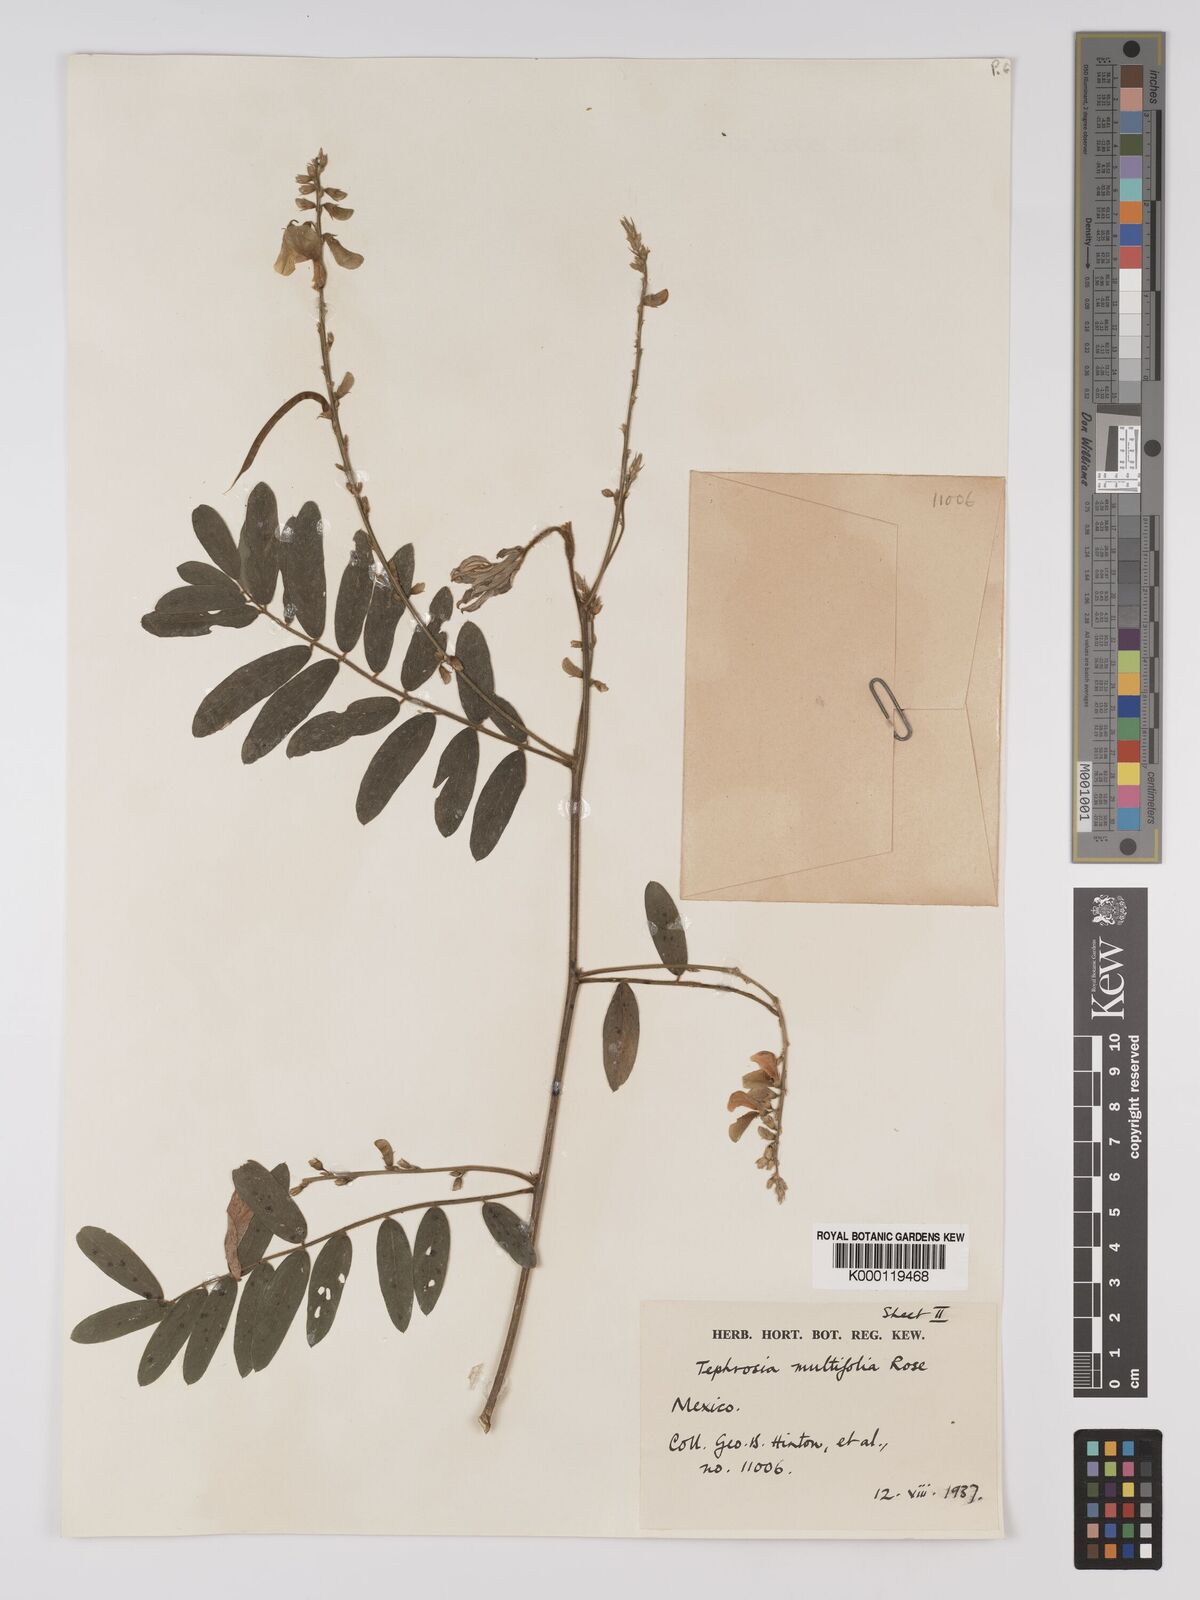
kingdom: Plantae
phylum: Tracheophyta
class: Magnoliopsida
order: Fabales
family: Fabaceae
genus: Tephrosia
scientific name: Tephrosia multifolia
